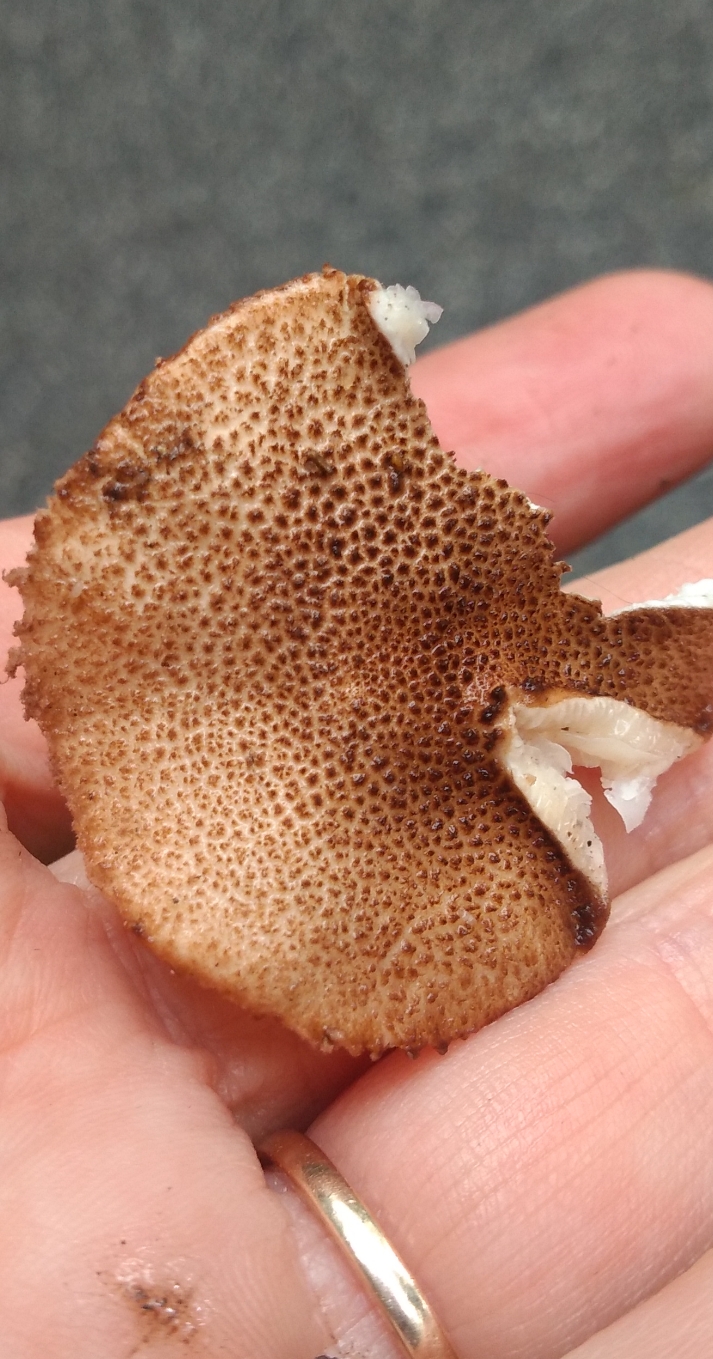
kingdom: Fungi
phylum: Basidiomycota
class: Agaricomycetes
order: Agaricales
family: Agaricaceae
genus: Echinoderma
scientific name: Echinoderma jacobi
